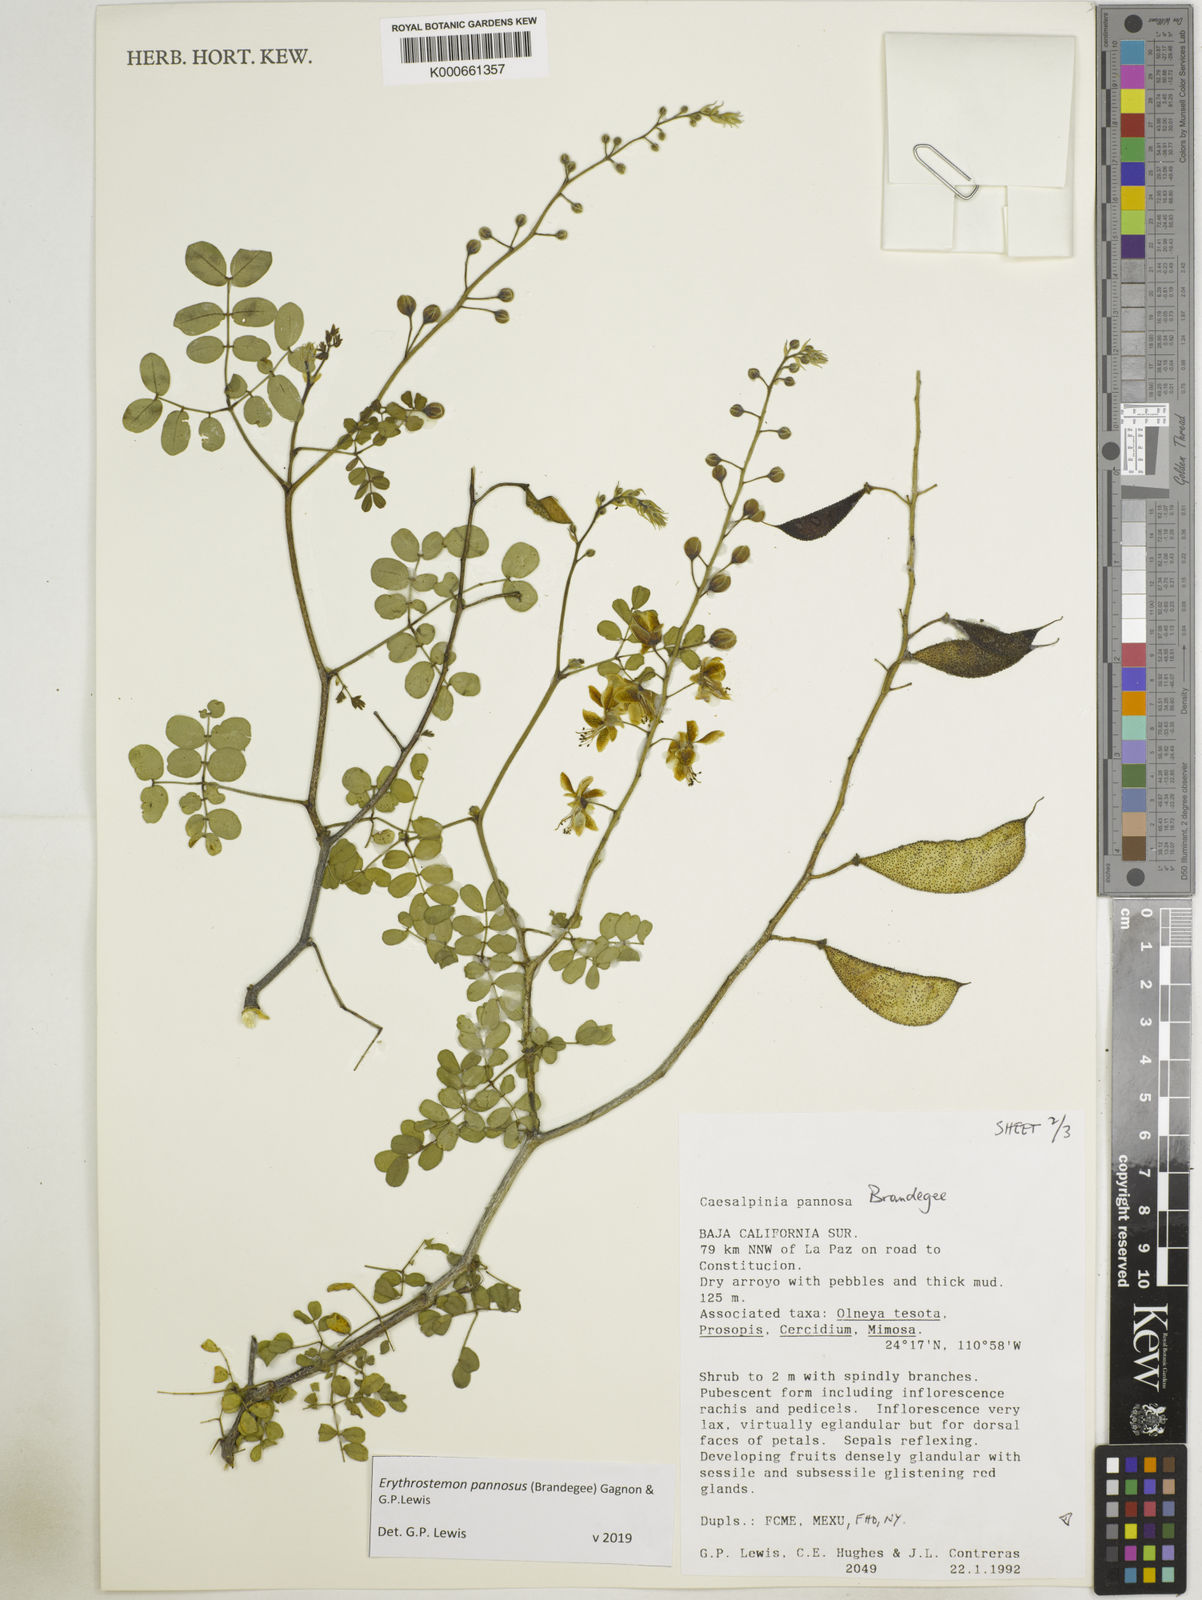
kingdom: Plantae
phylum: Tracheophyta
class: Magnoliopsida
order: Fabales
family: Fabaceae
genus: Erythrostemon
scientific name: Erythrostemon pannosus
